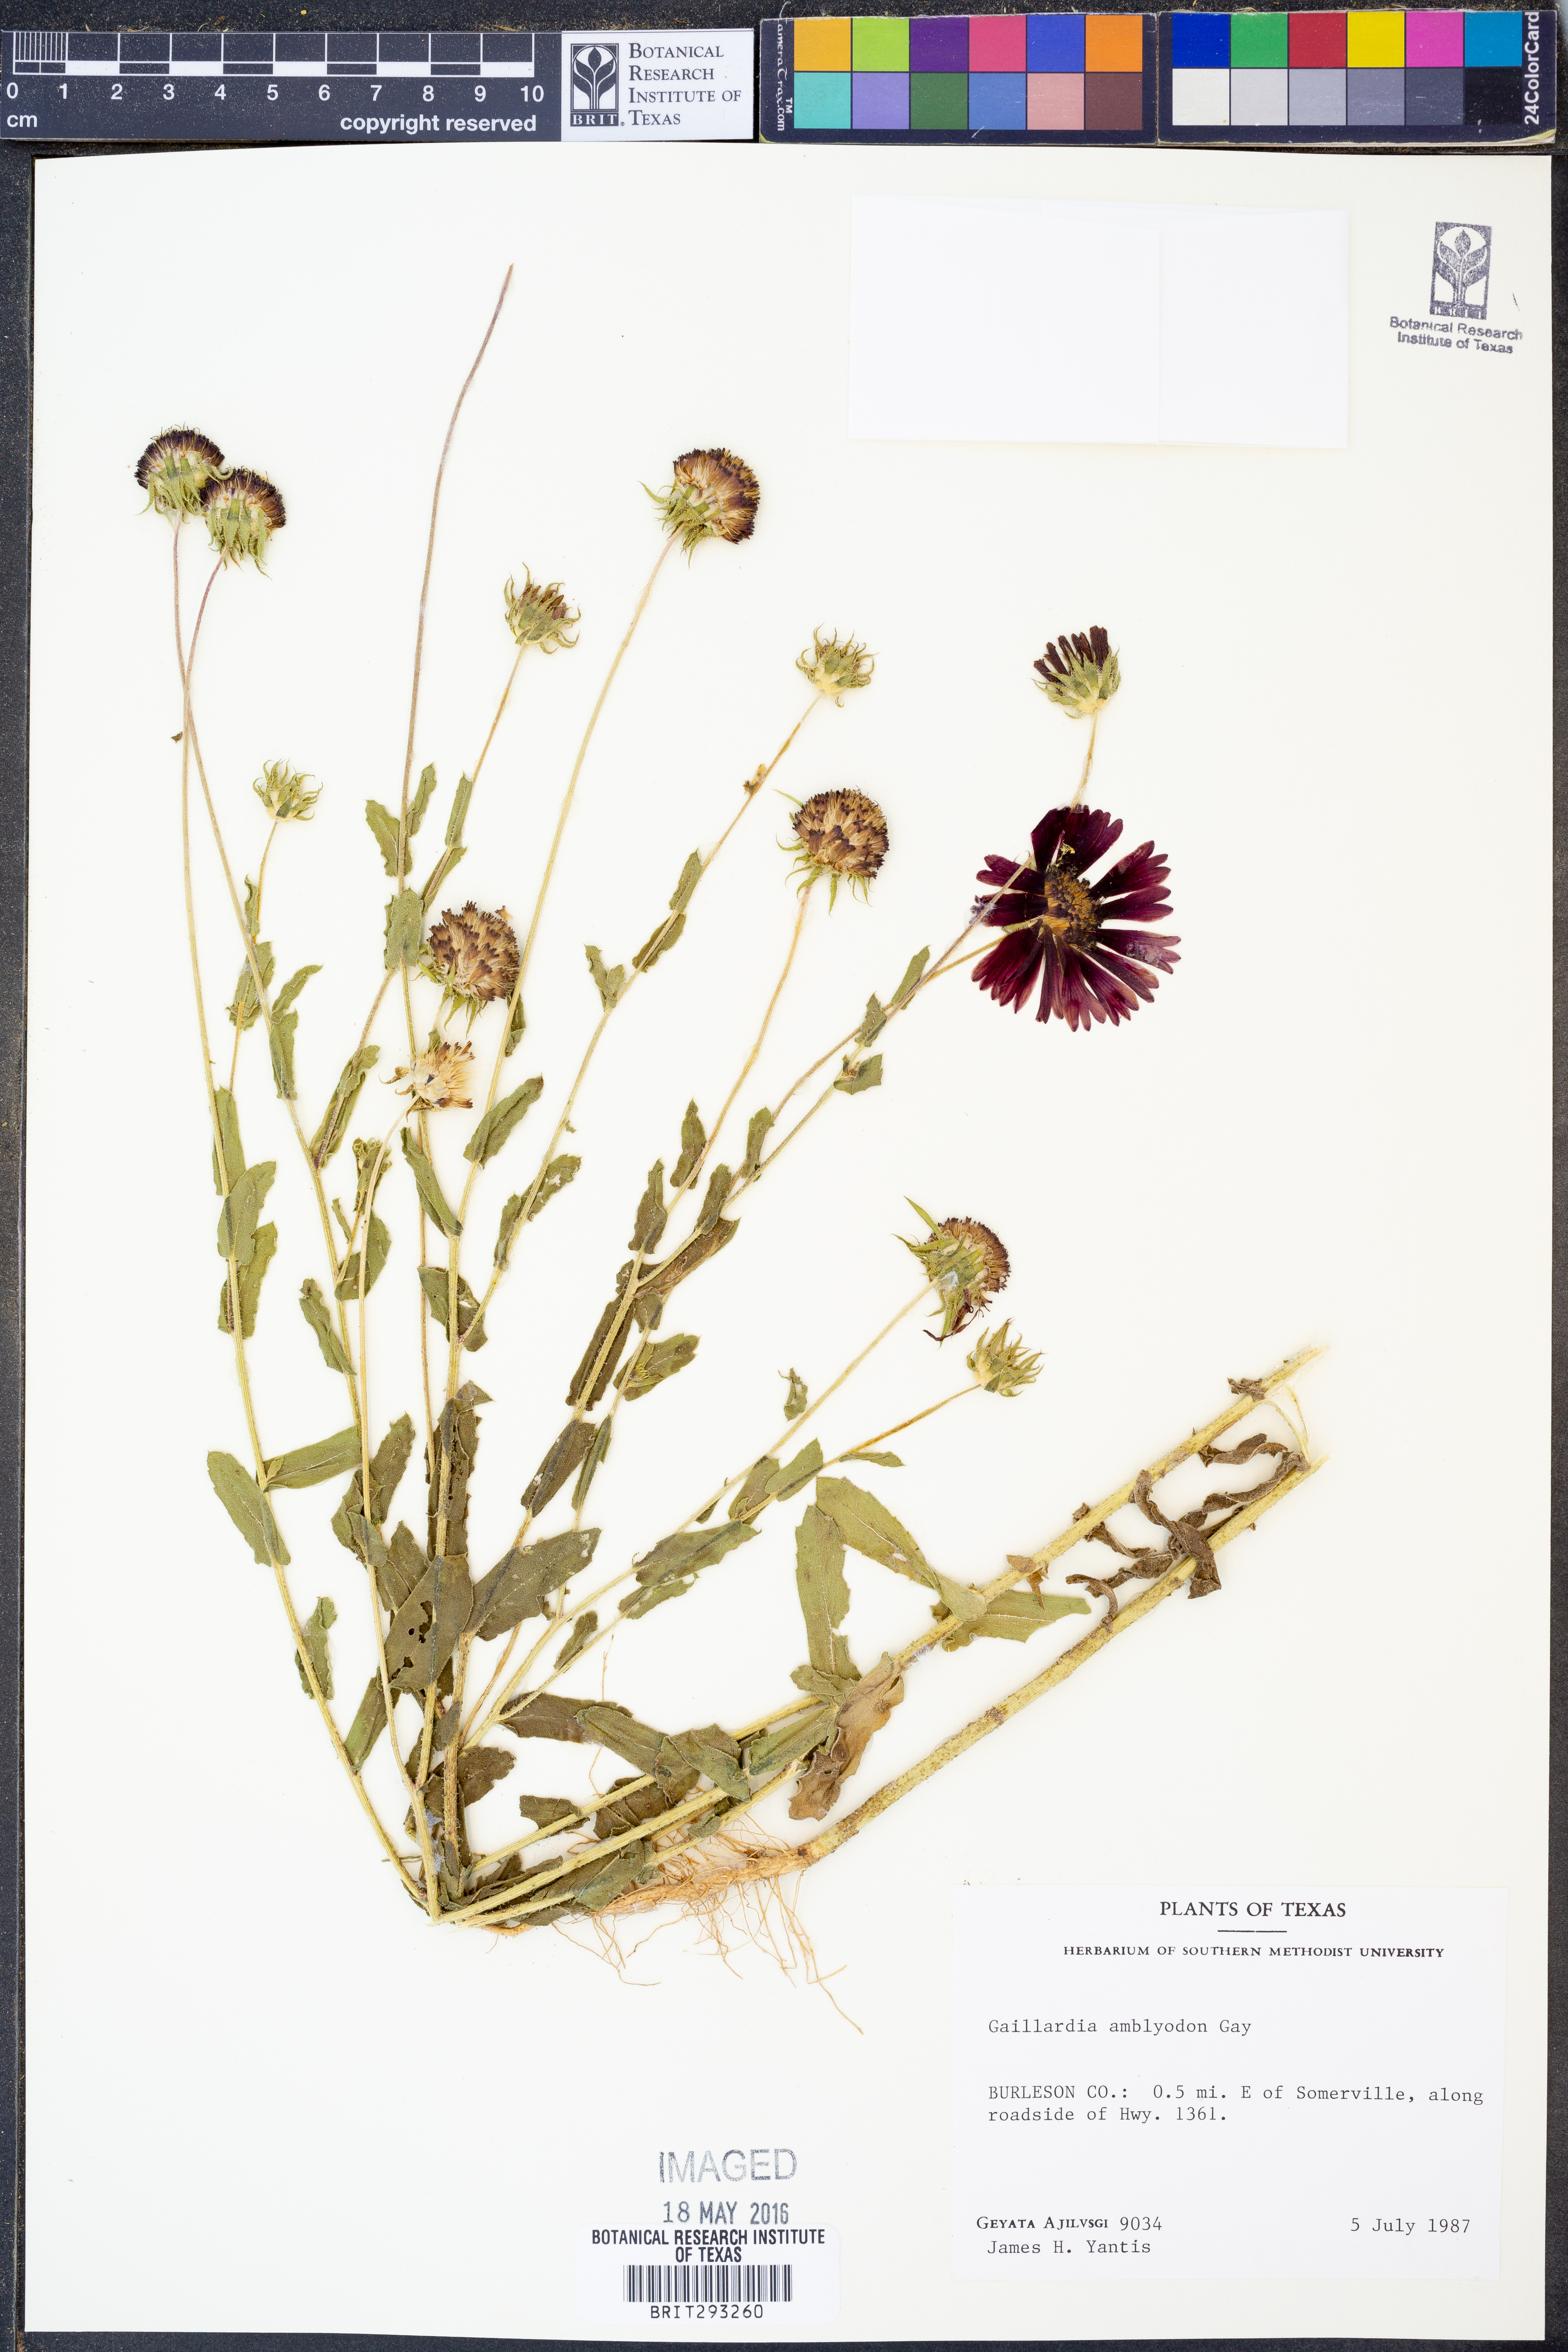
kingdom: Plantae
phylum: Tracheophyta
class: Magnoliopsida
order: Asterales
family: Asteraceae
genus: Gaillardia
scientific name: Gaillardia amblyodon
